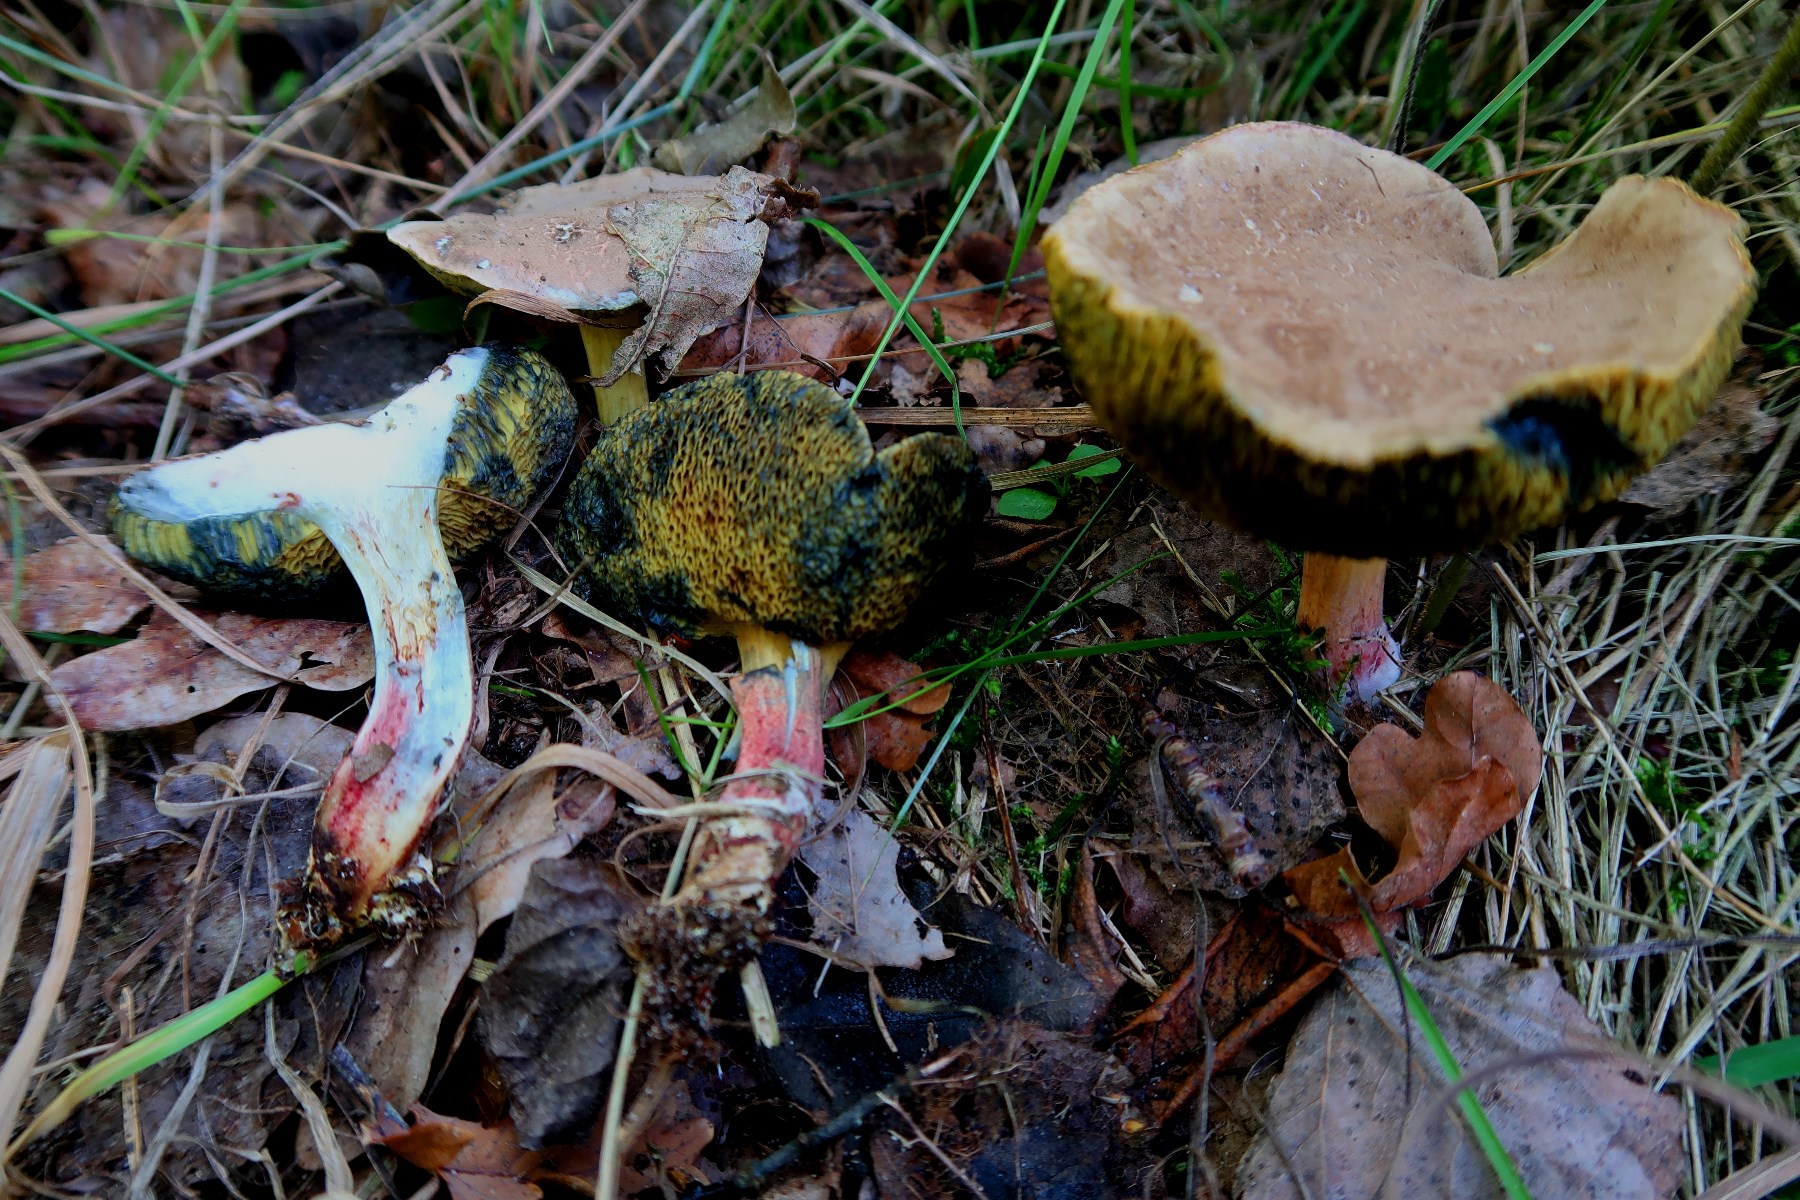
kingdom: Fungi
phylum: Basidiomycota
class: Agaricomycetes
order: Boletales
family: Boletaceae
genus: Xerocomellus
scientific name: Xerocomellus cisalpinus
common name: finsprukken rørhat
